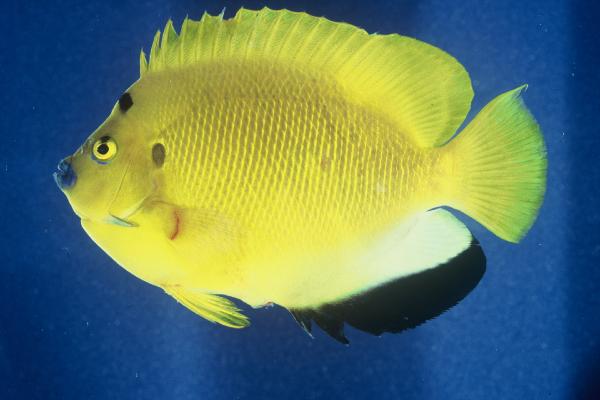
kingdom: Animalia
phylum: Chordata
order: Perciformes
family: Pomacanthidae
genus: Apolemichthys
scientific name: Apolemichthys trimaculatus
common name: Threespot angelfish
